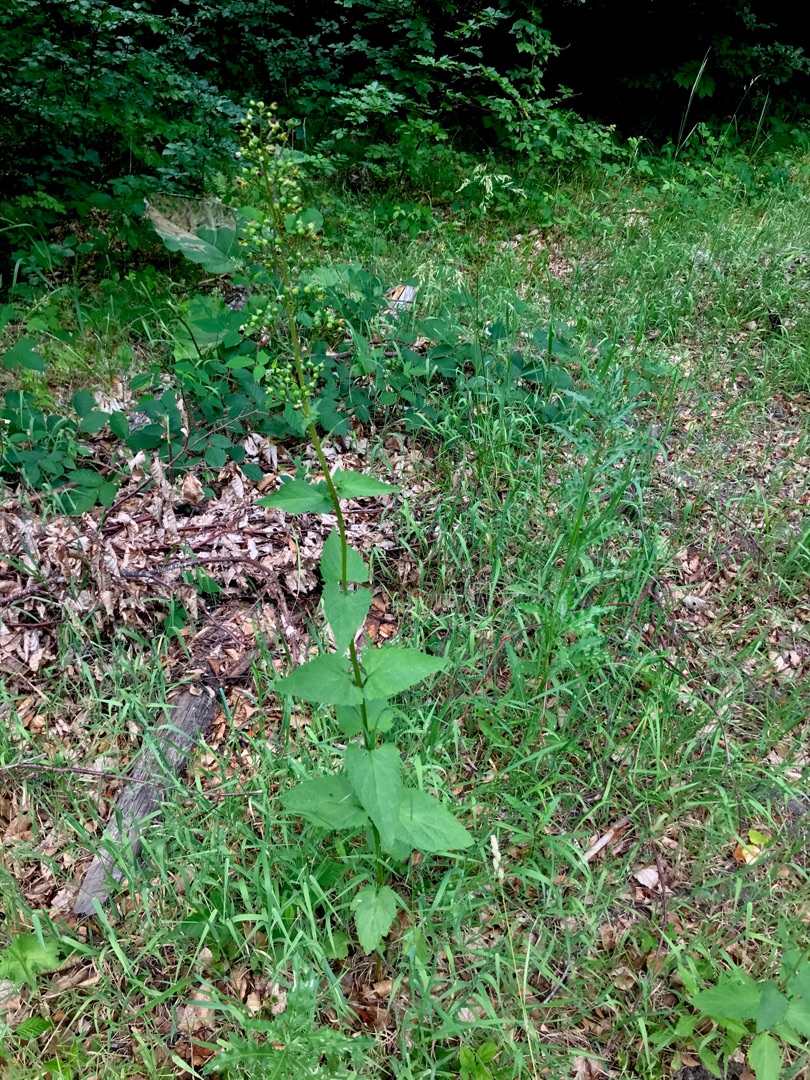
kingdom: Plantae
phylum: Tracheophyta
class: Magnoliopsida
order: Lamiales
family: Scrophulariaceae
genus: Scrophularia
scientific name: Scrophularia nodosa
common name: Knoldet brunrod
